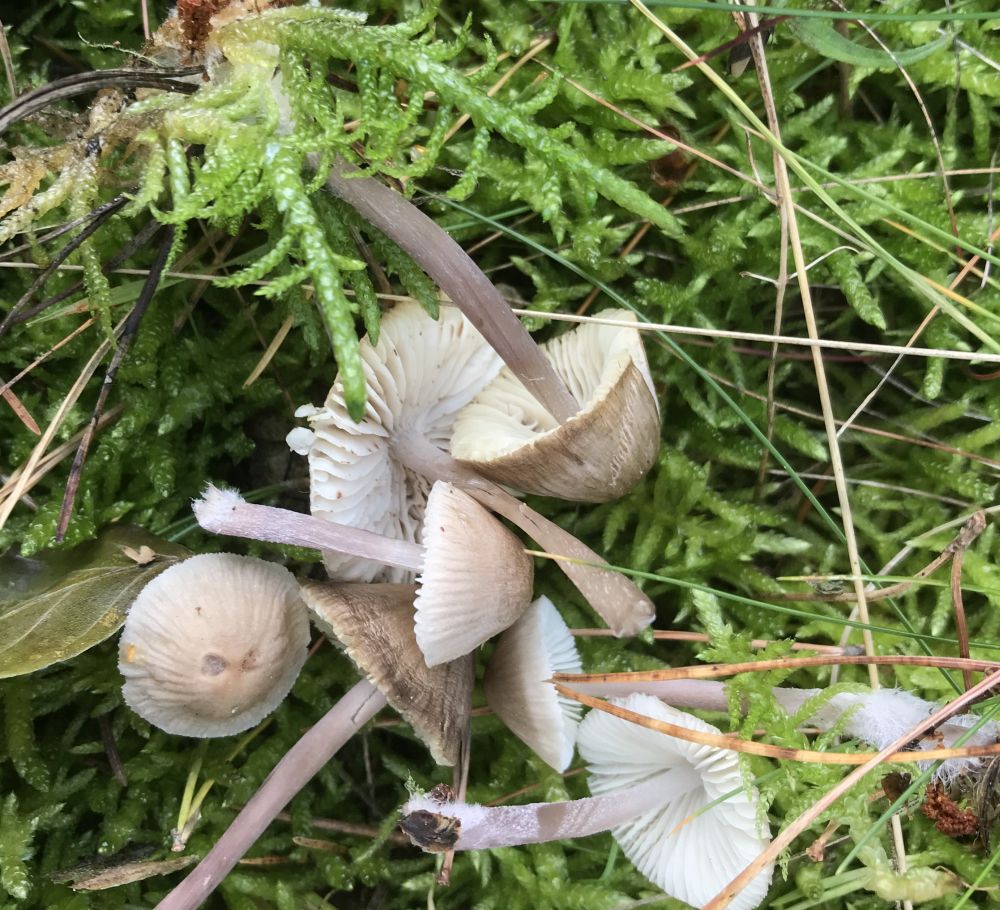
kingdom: Fungi
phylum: Basidiomycota
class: Agaricomycetes
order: Agaricales
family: Mycenaceae
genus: Mycena
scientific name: Mycena zephirus
